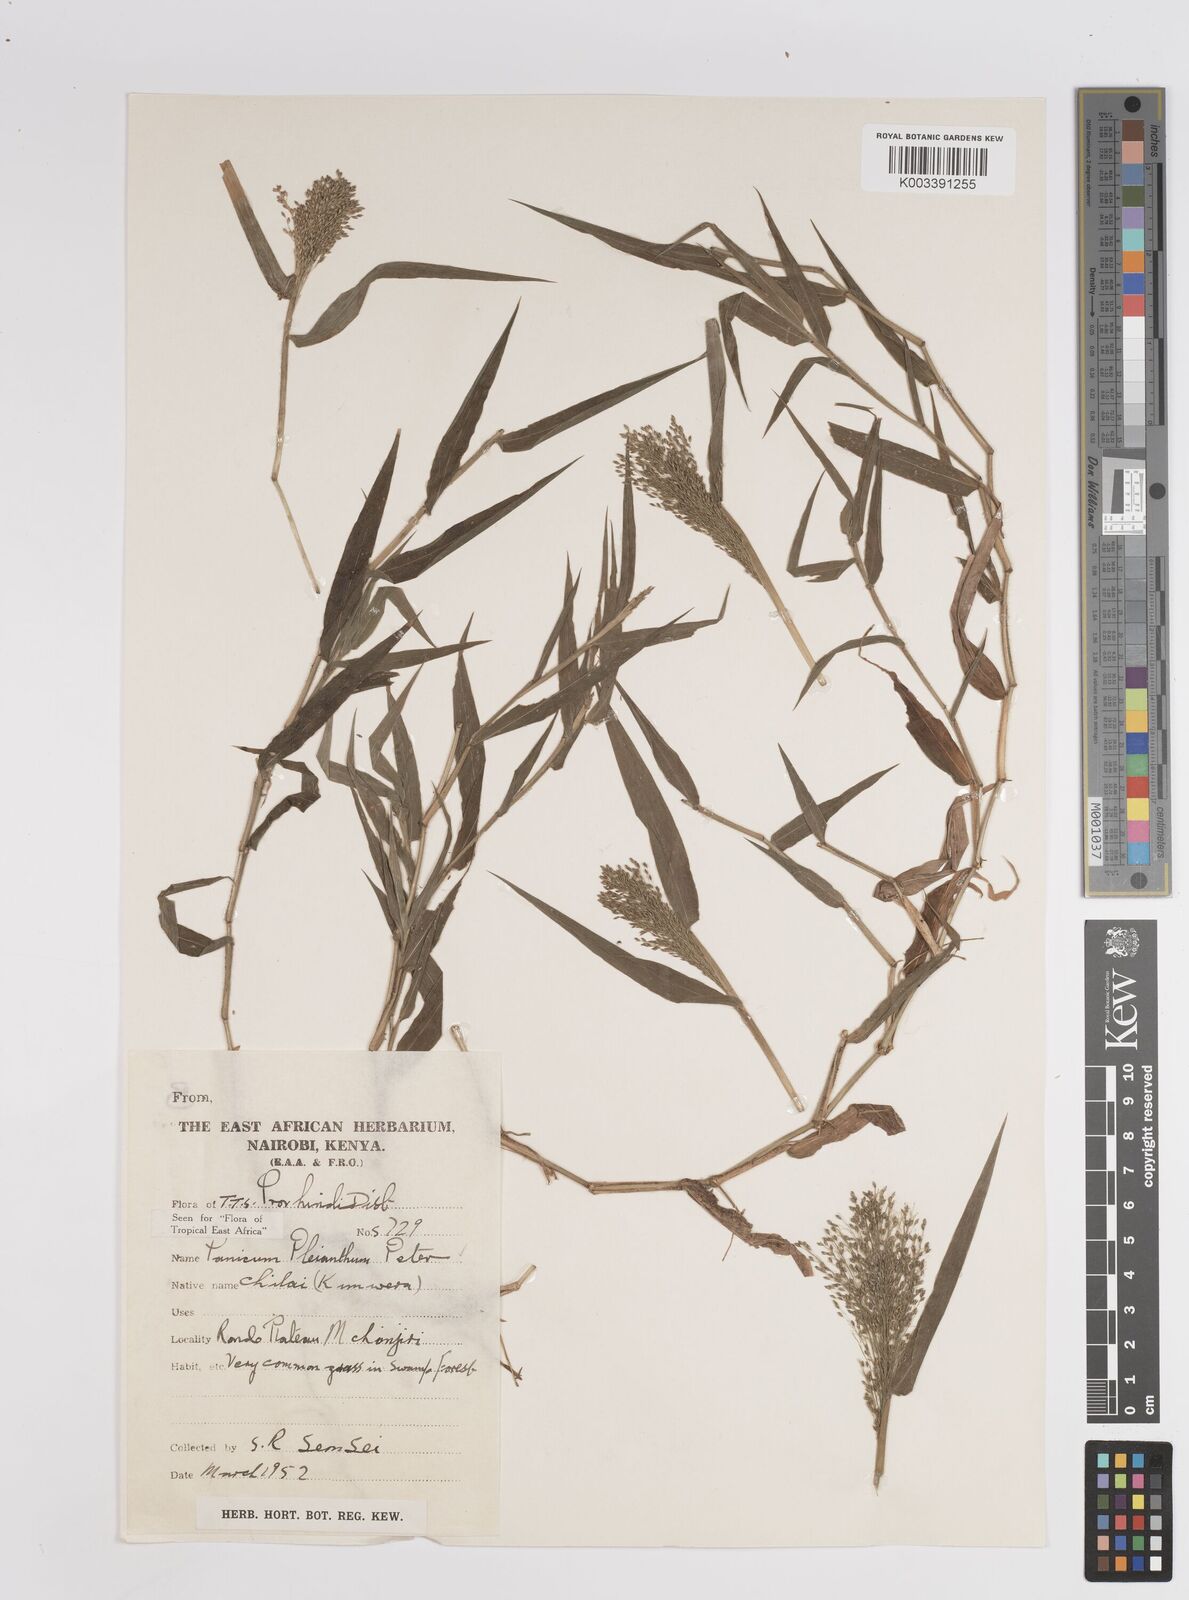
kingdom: Plantae
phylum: Tracheophyta
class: Liliopsida
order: Poales
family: Poaceae
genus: Panicum
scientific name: Panicum pleianthum
